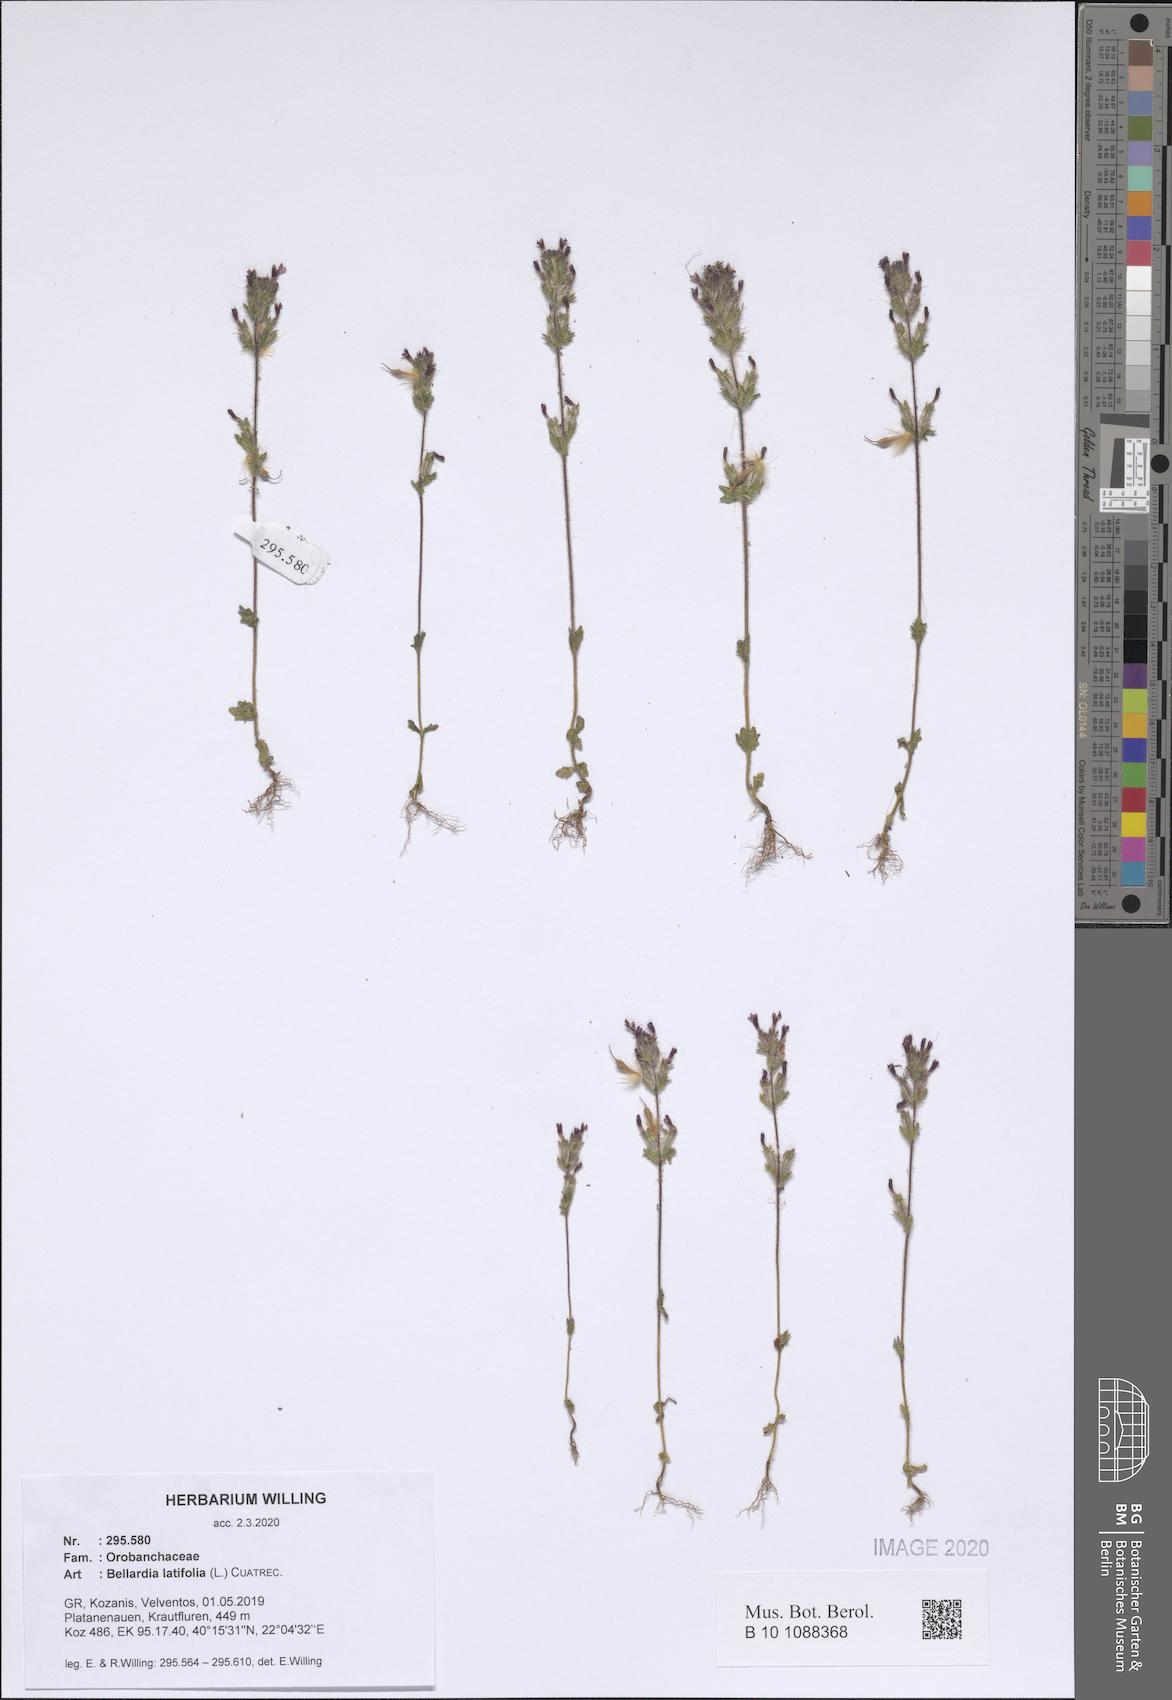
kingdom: Plantae
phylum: Tracheophyta
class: Magnoliopsida
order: Lamiales
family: Orobanchaceae
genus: Parentucellia
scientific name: Parentucellia latifolia
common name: Broadleaf glandweed
